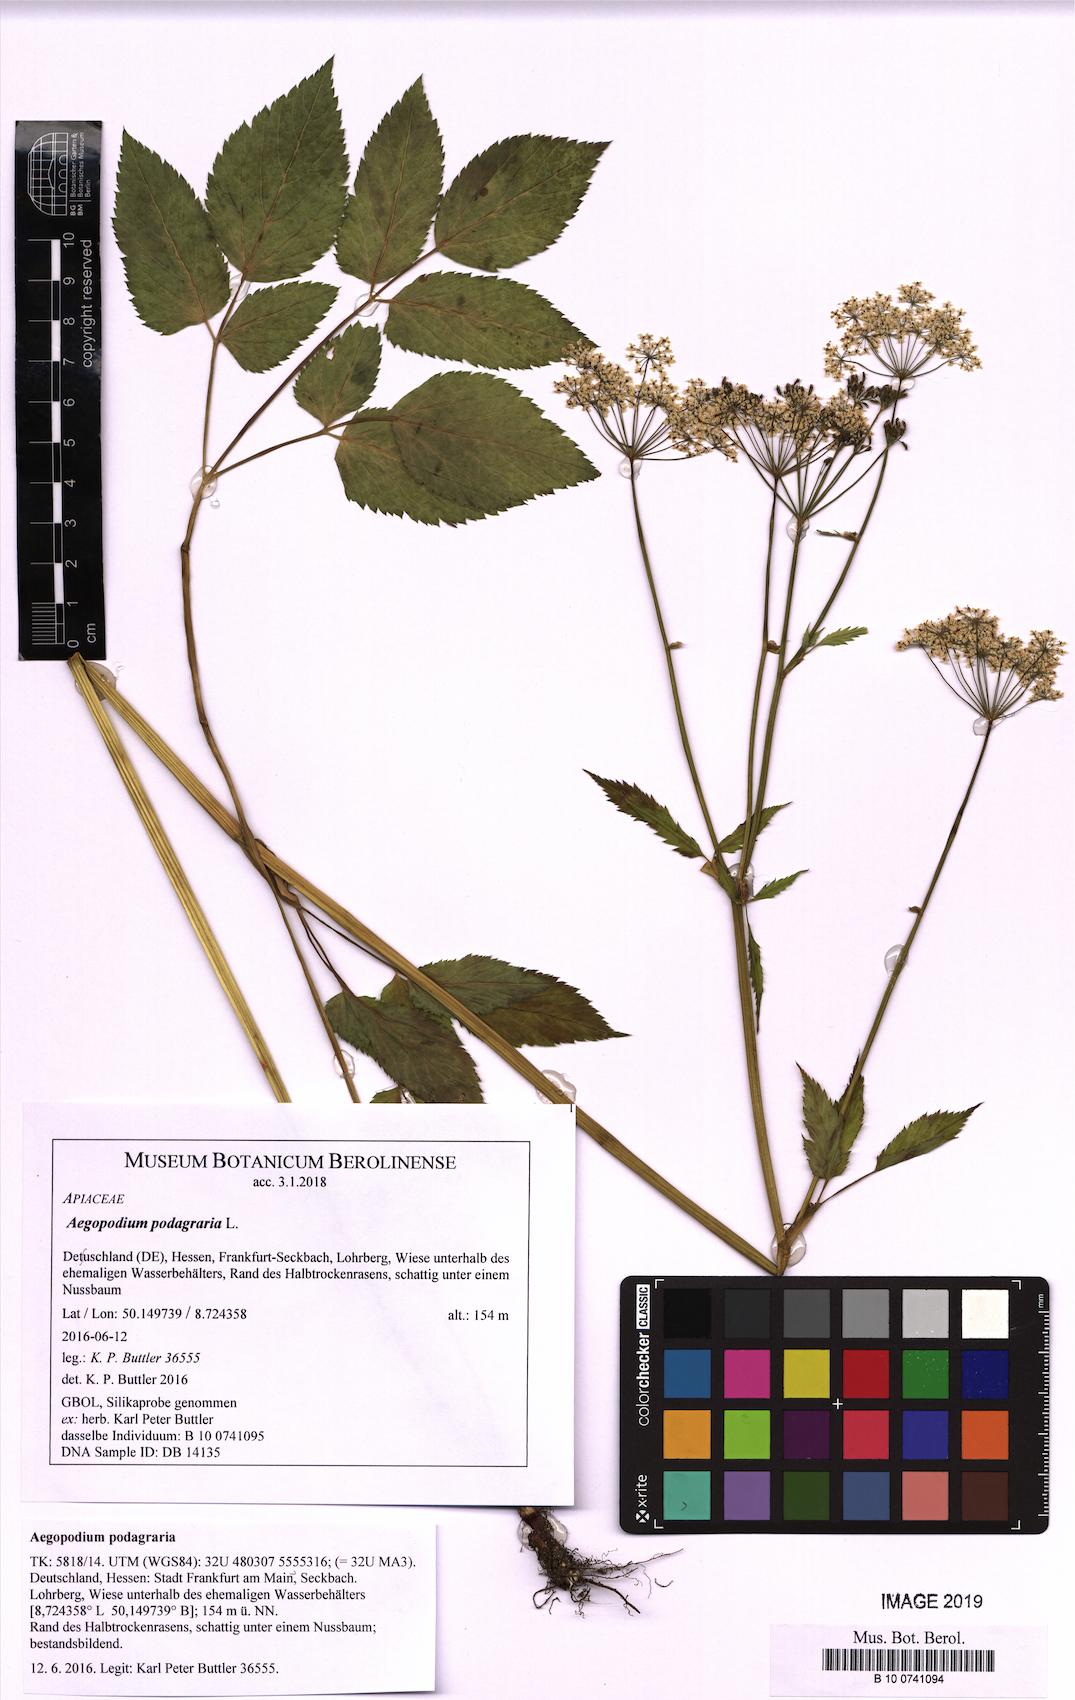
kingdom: Plantae
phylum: Tracheophyta
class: Magnoliopsida
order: Apiales
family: Apiaceae
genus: Aegopodium
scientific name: Aegopodium podagraria
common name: Ground-elder
